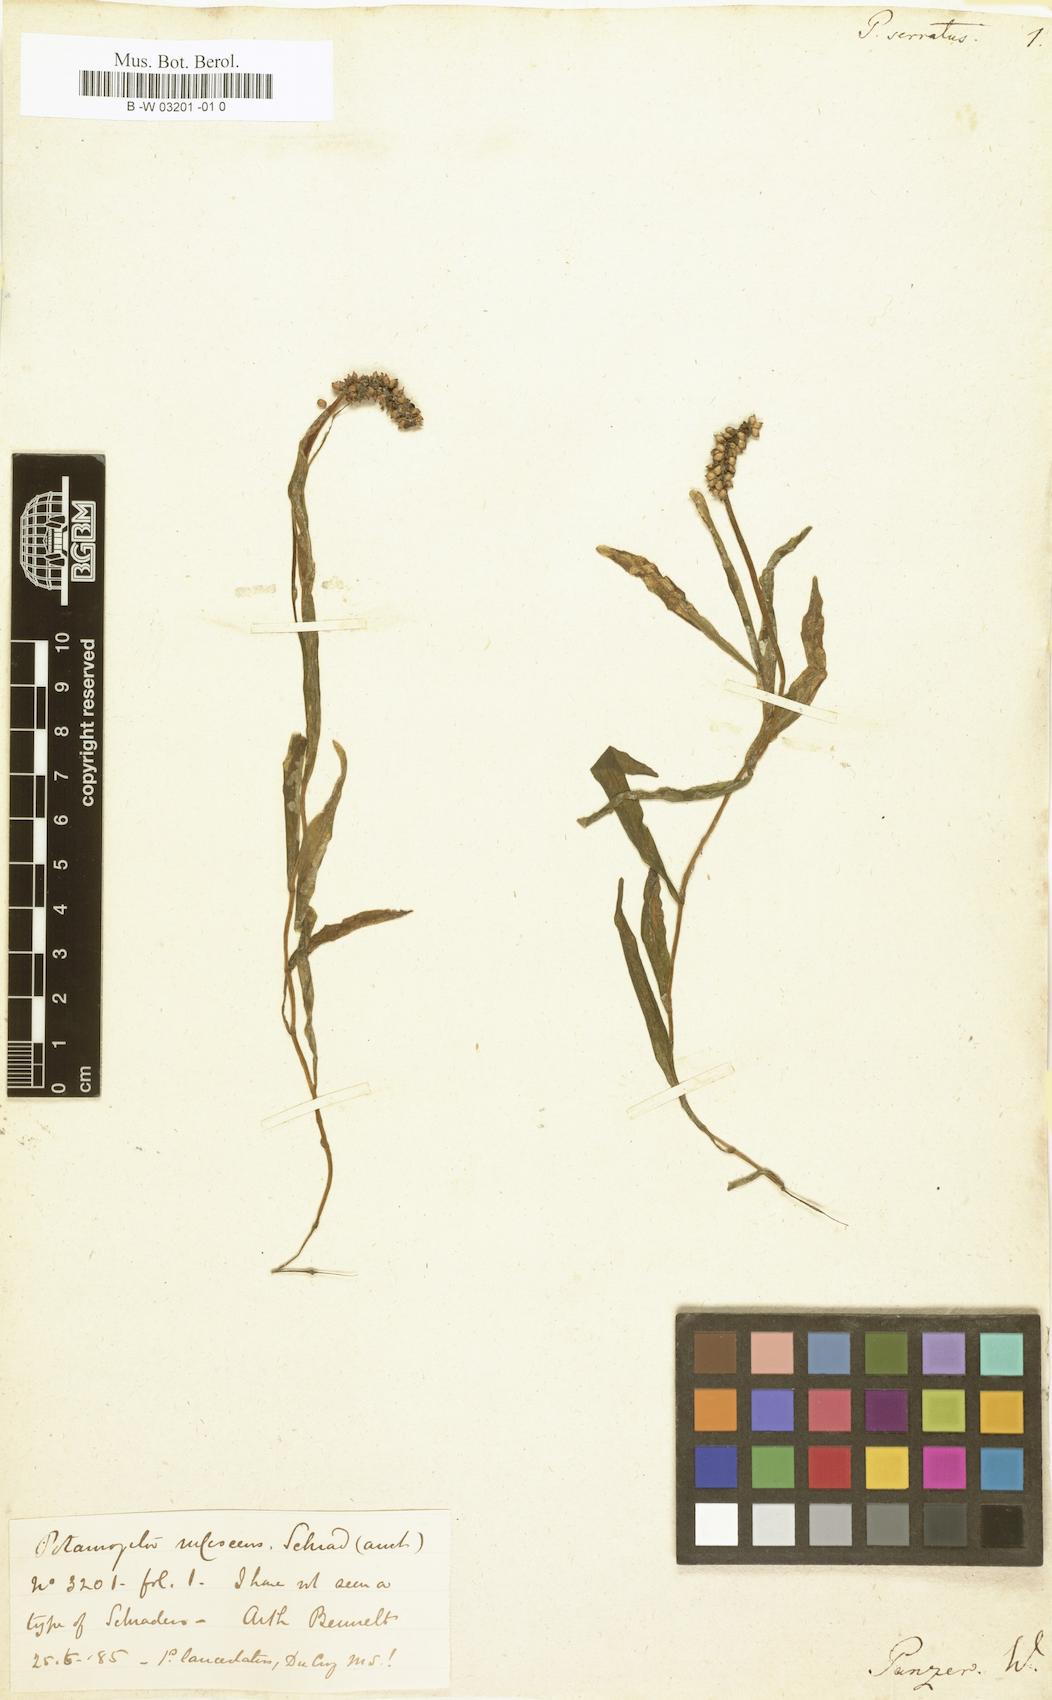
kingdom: Plantae
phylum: Tracheophyta
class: Liliopsida
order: Alismatales
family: Potamogetonaceae
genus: Potamogeton
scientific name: Potamogeton serratus
